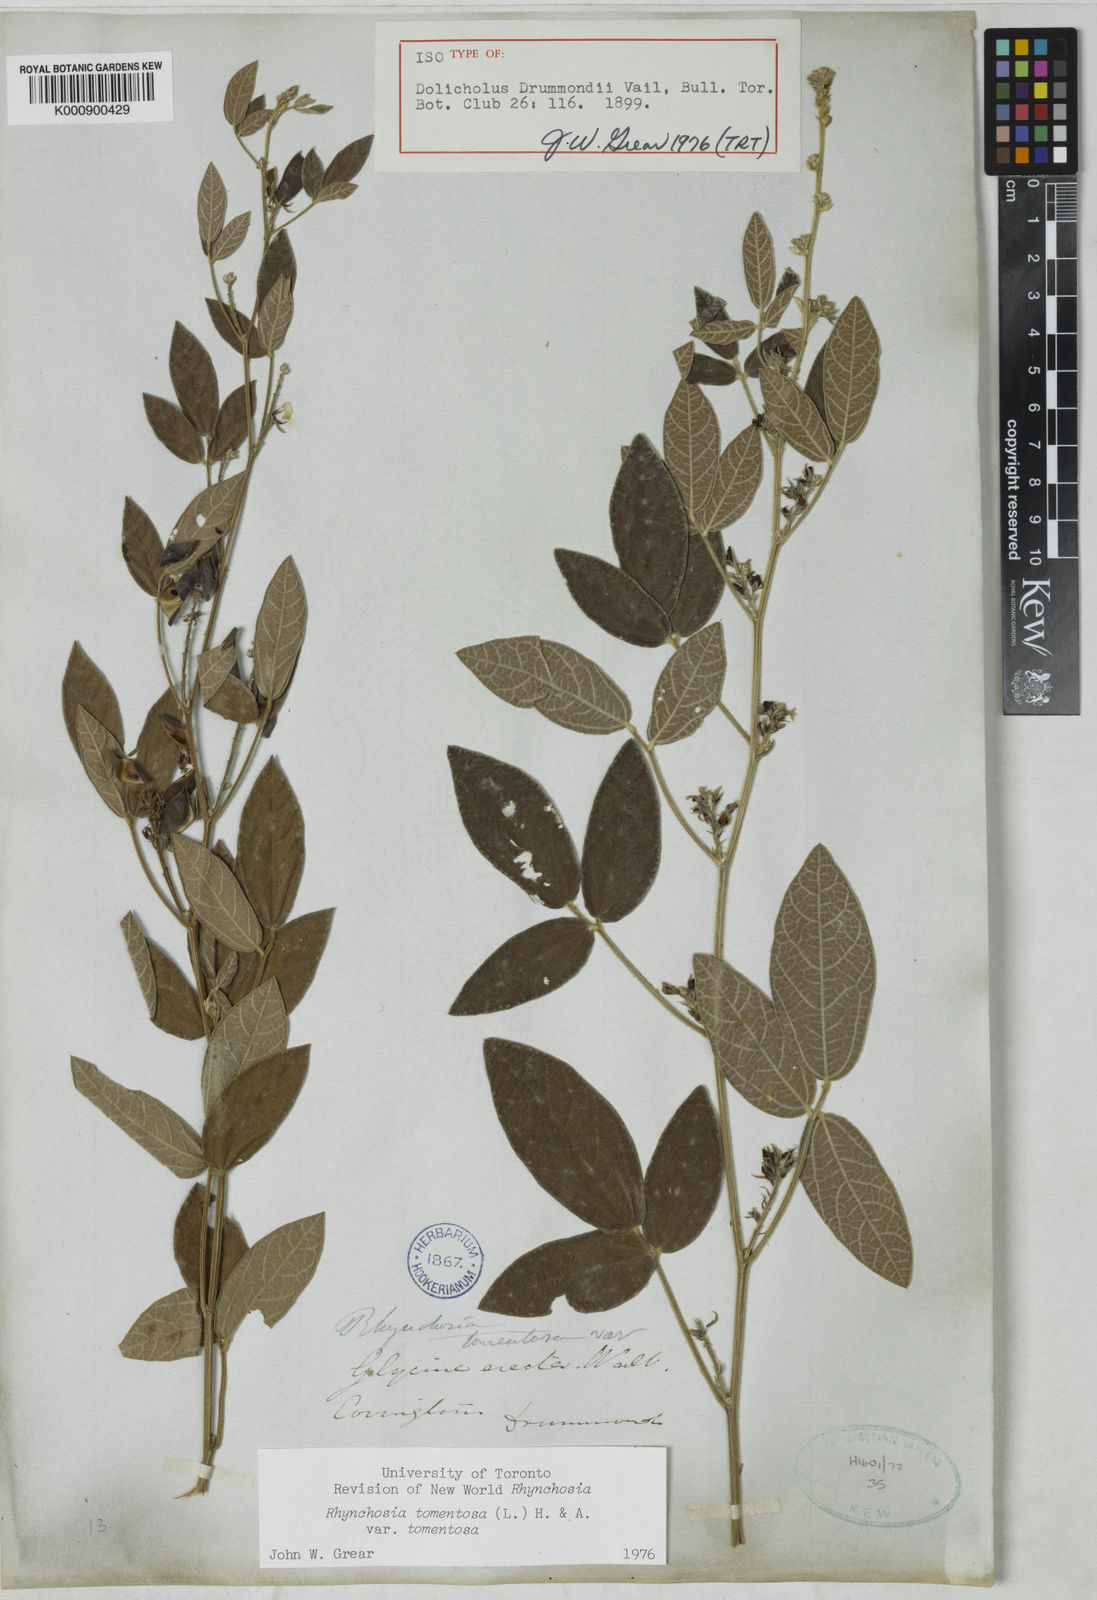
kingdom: Plantae
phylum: Tracheophyta
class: Magnoliopsida
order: Fabales
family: Fabaceae
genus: Rhynchosia
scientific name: Rhynchosia tomentosa
